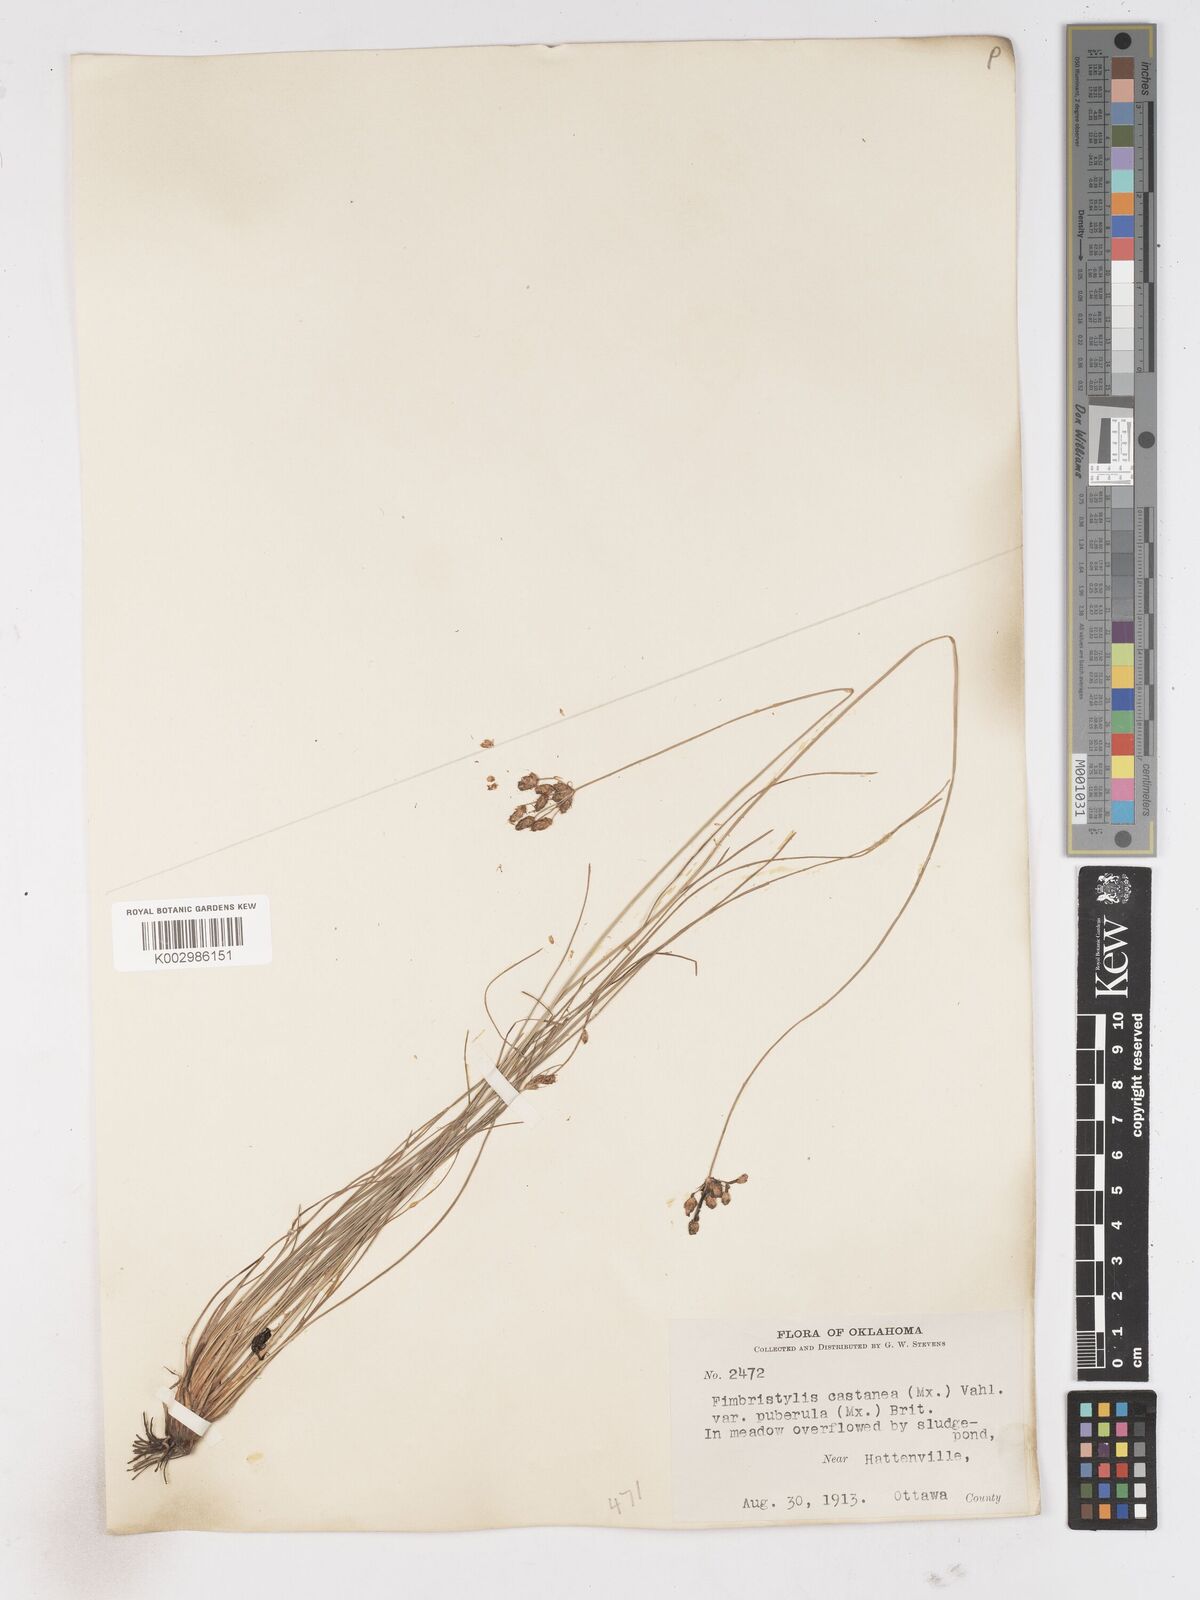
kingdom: Plantae
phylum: Tracheophyta
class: Liliopsida
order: Poales
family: Cyperaceae
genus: Fimbristylis
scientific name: Fimbristylis spadicea
